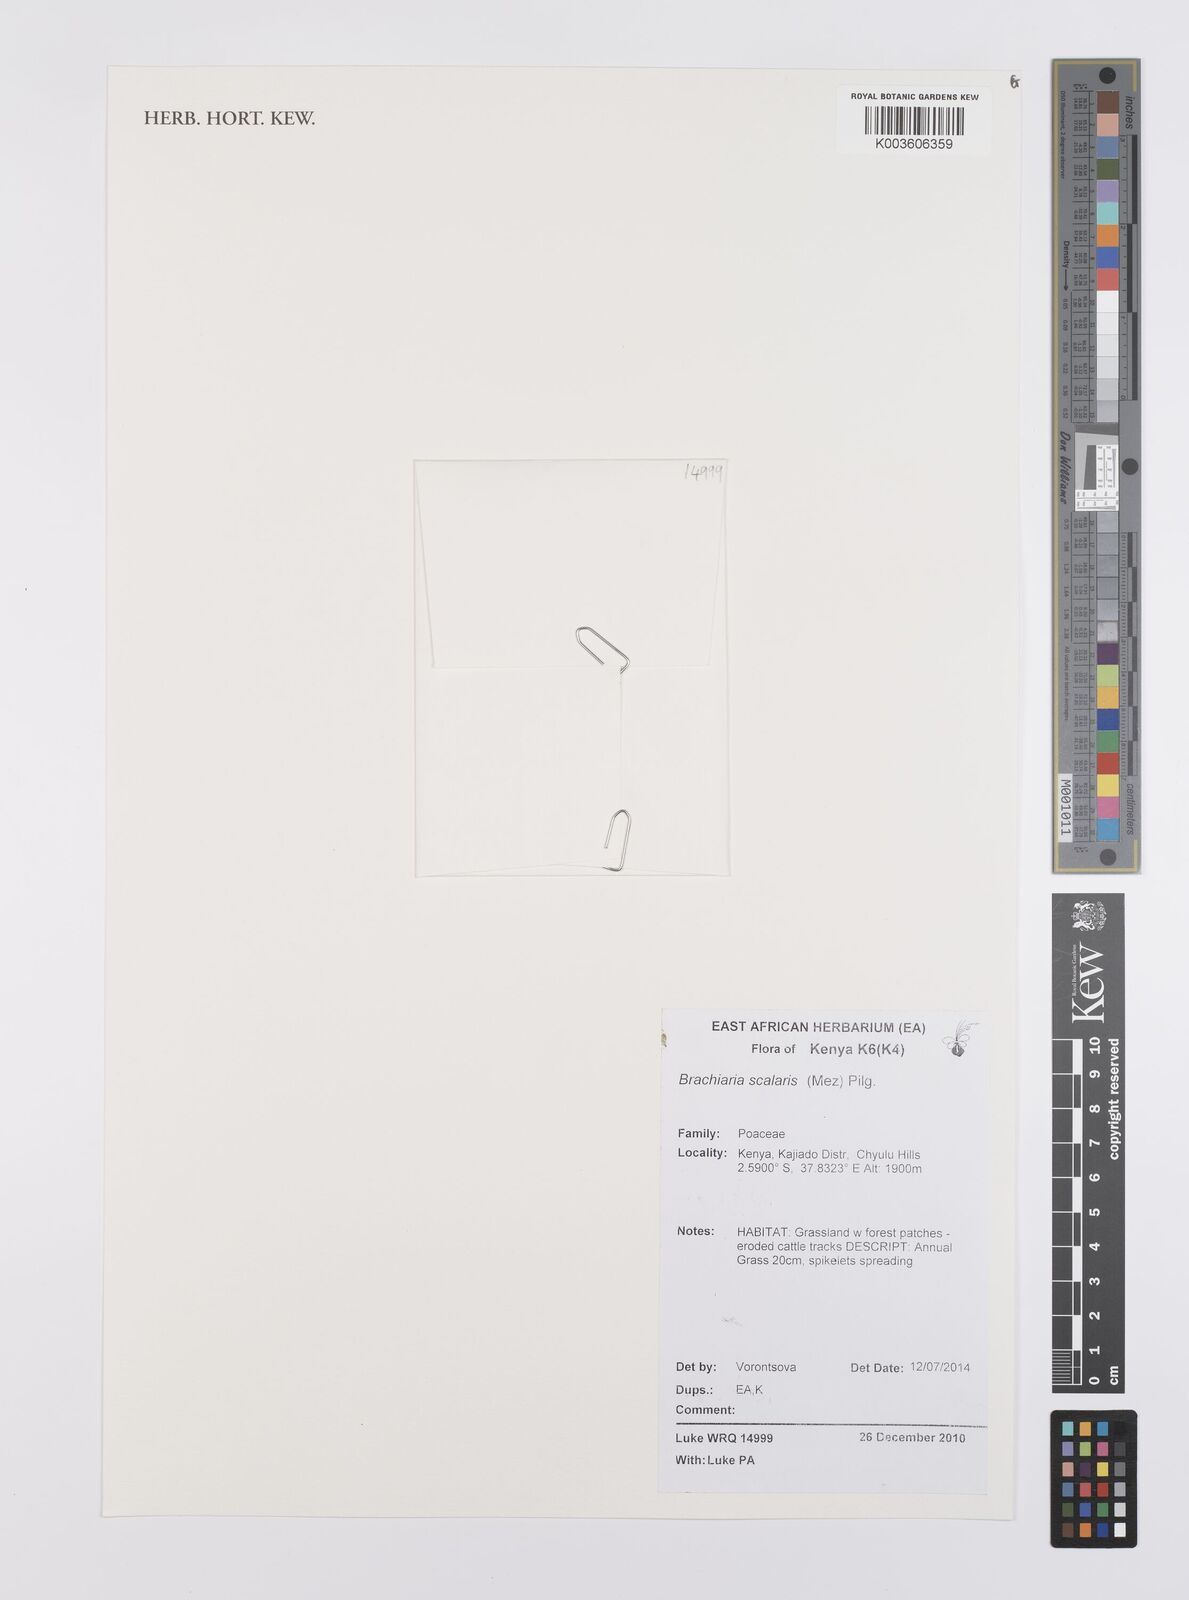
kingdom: Plantae
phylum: Tracheophyta
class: Liliopsida
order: Poales
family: Poaceae
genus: Urochloa
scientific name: Urochloa comata
